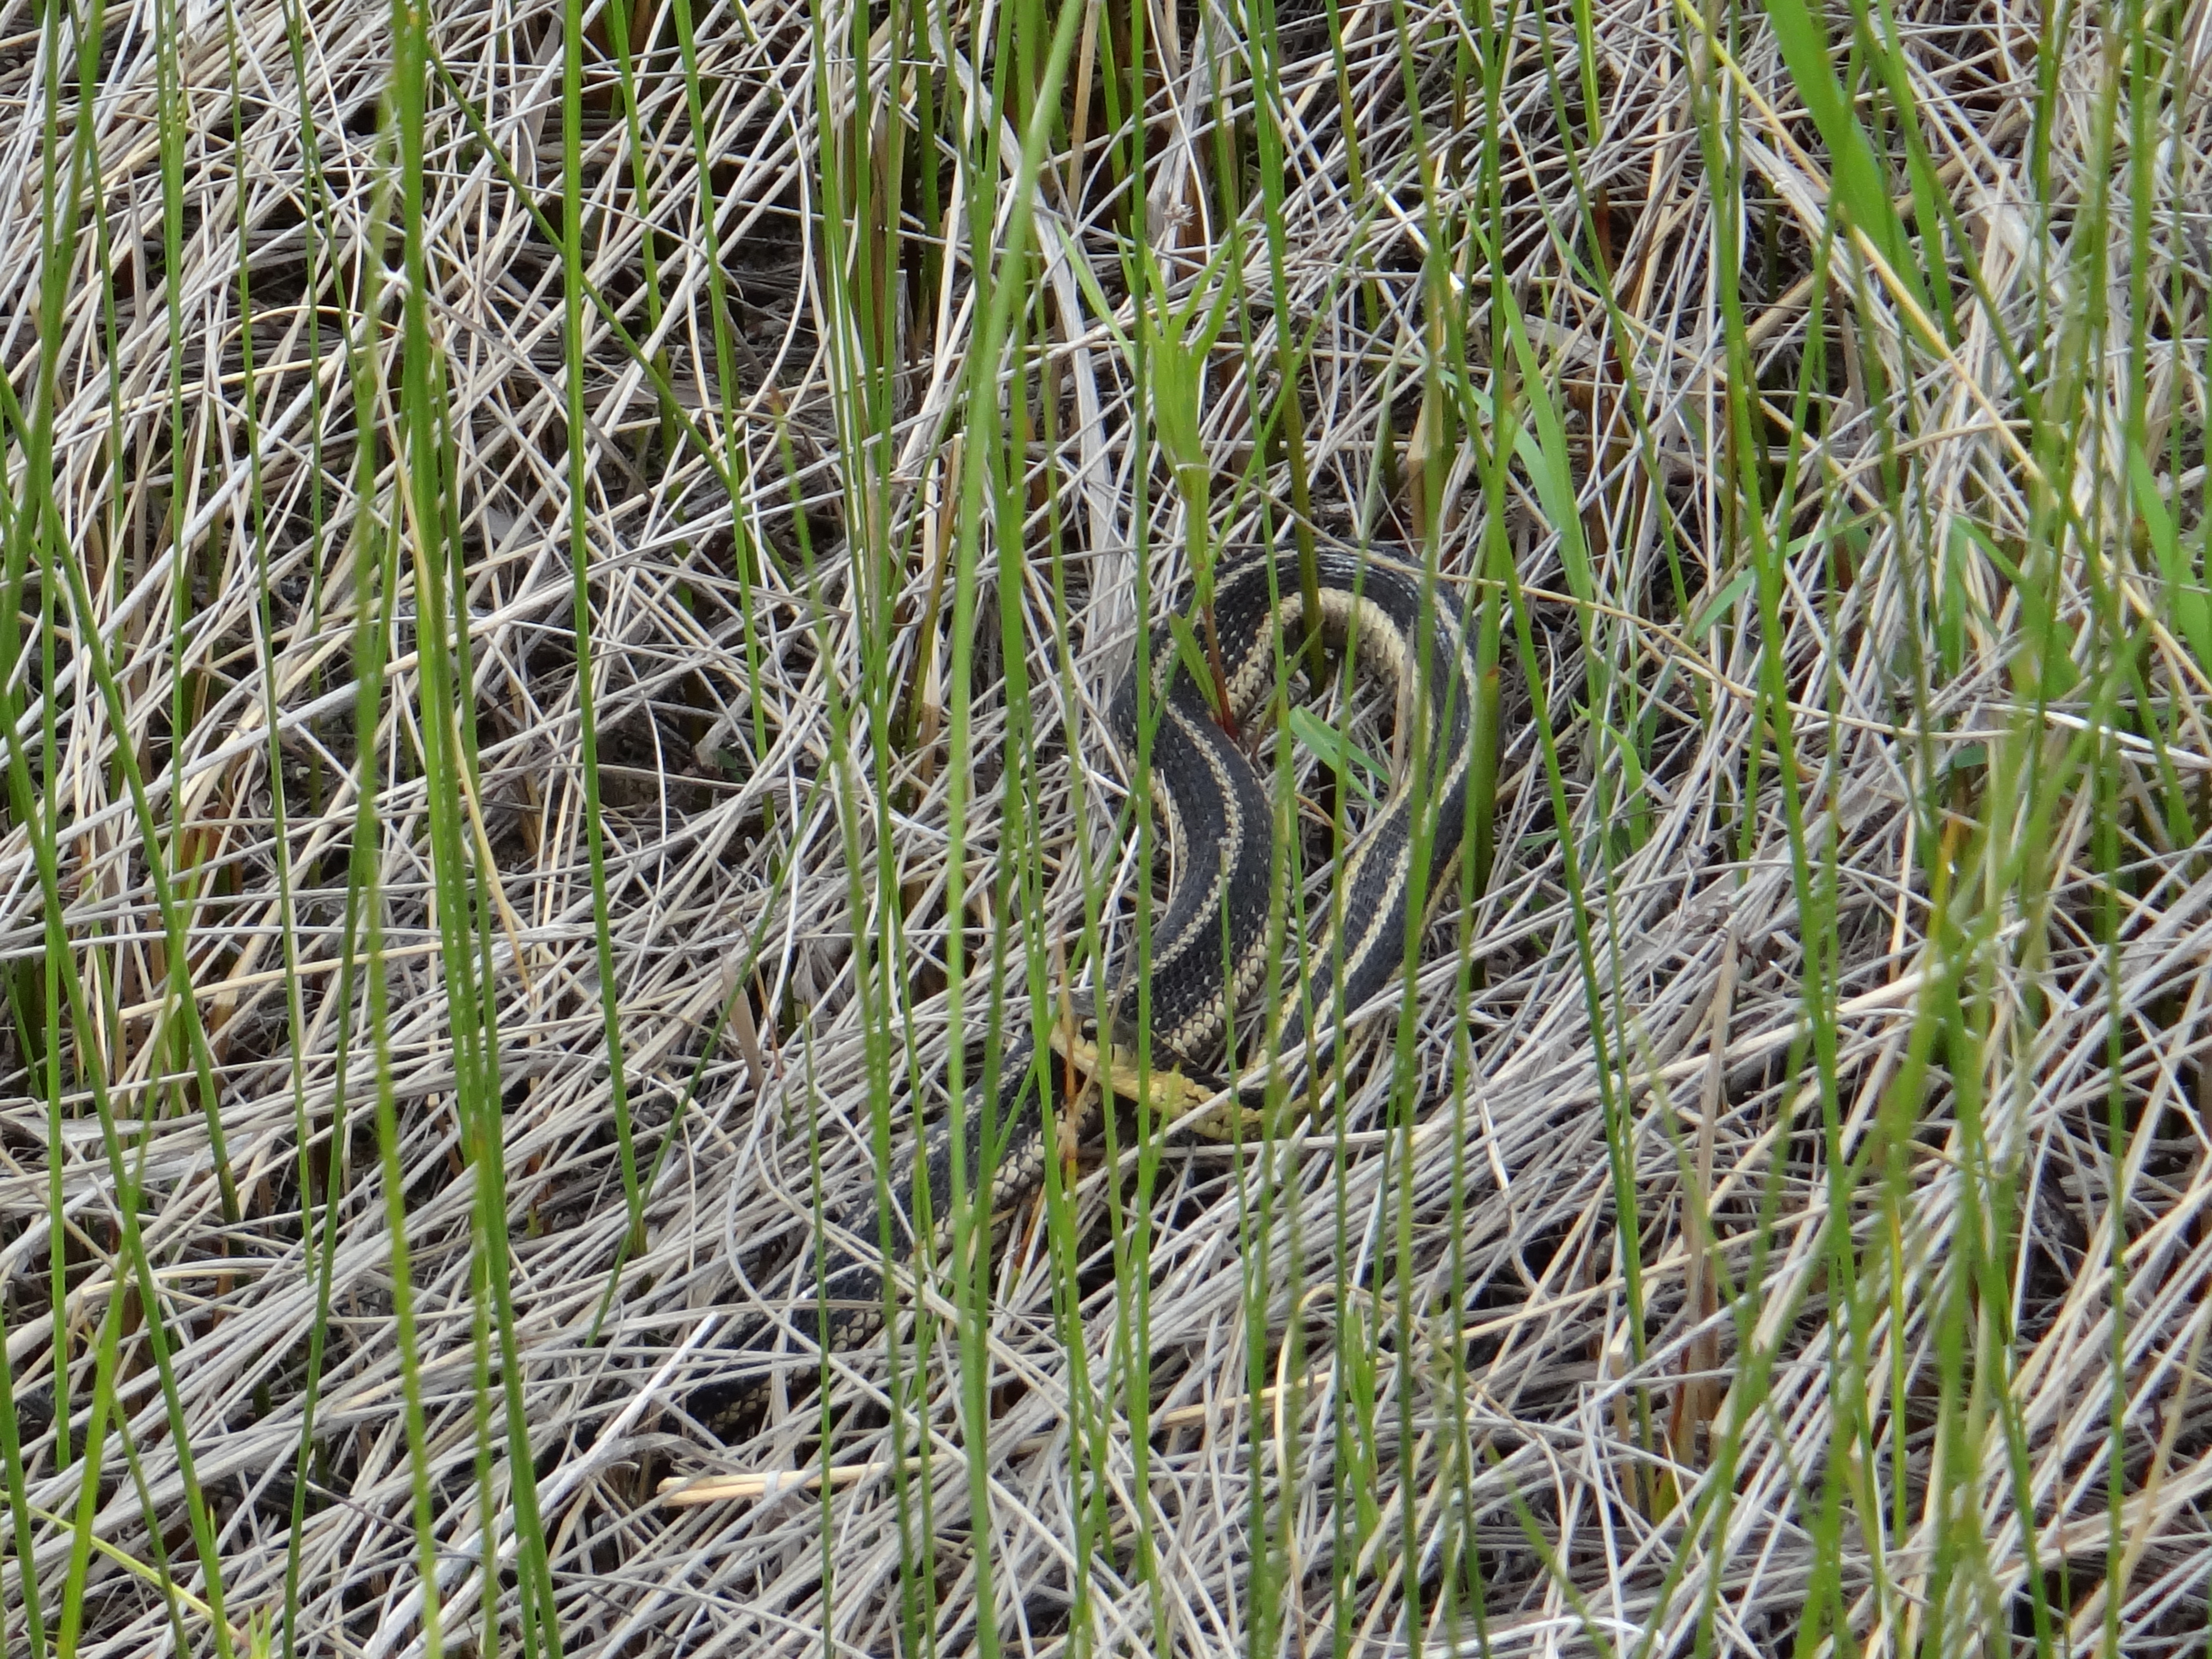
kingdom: Plantae
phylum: Tracheophyta
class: Liliopsida
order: Poales
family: Cyperaceae
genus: Cladium
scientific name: Cladium mariscoides
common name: Smooth sawgrass
